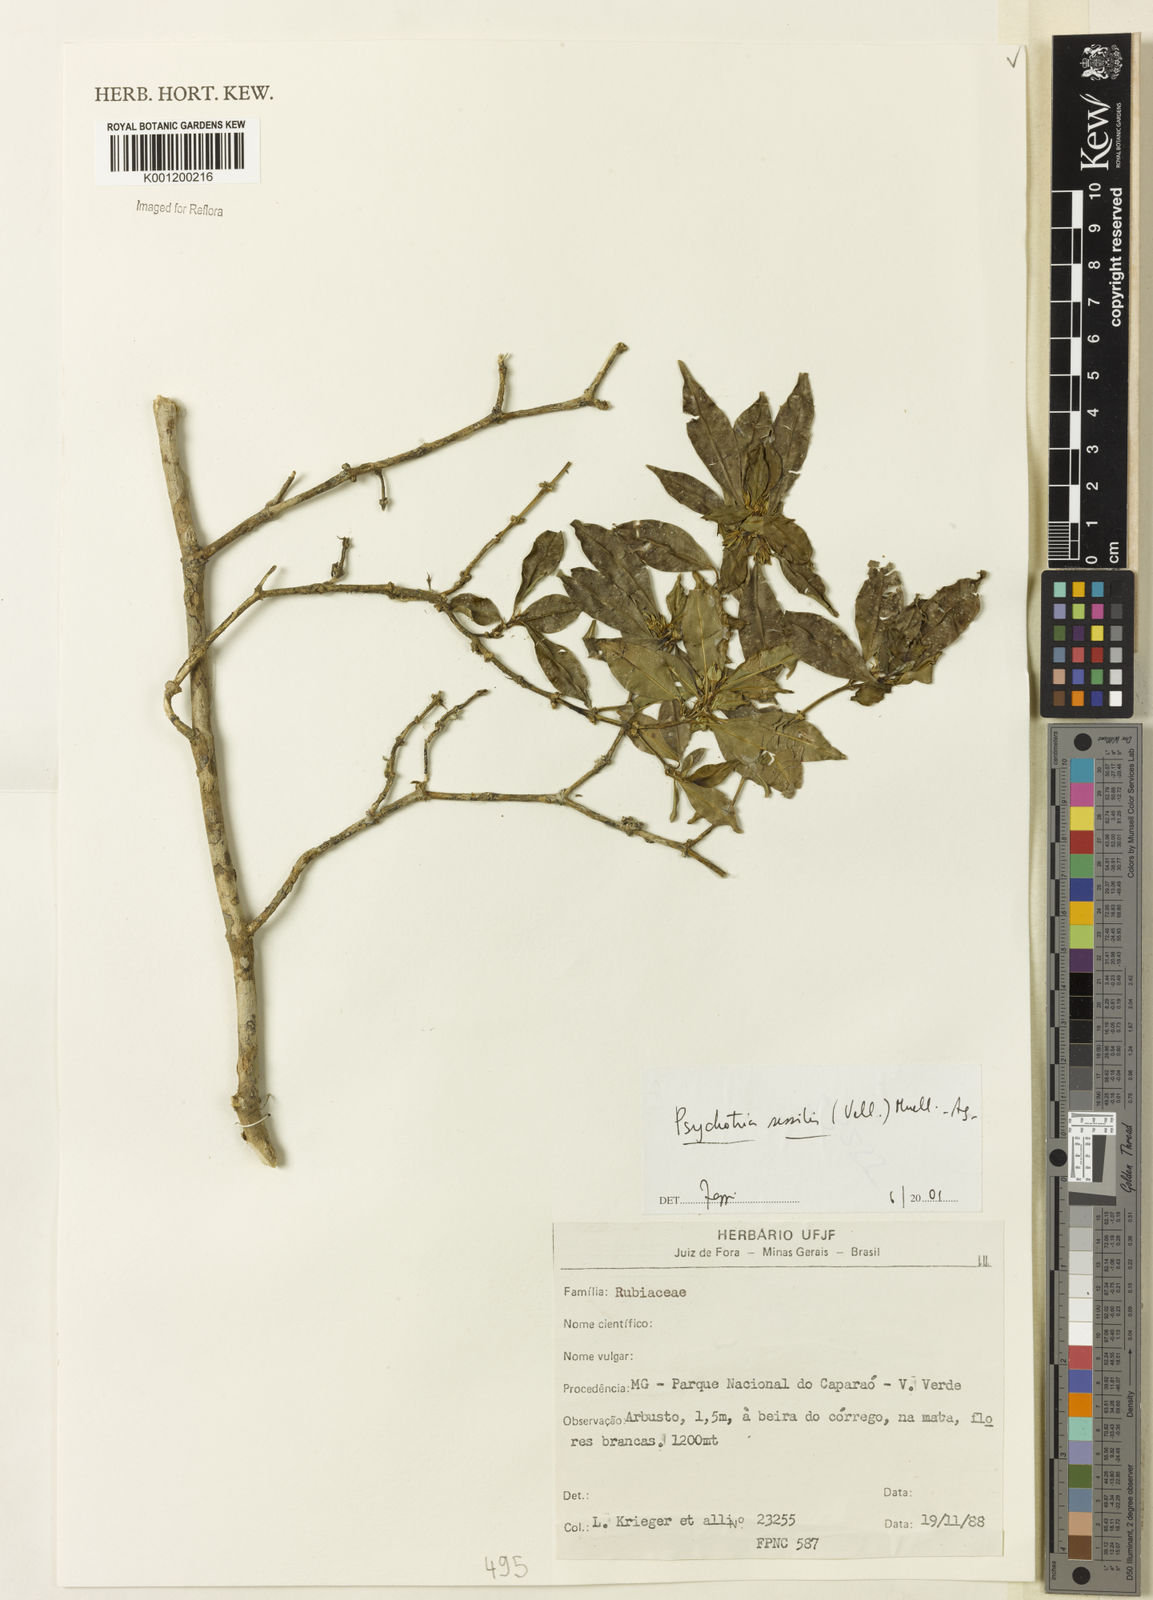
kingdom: Plantae
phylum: Tracheophyta
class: Magnoliopsida
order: Gentianales
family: Rubiaceae
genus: Rudgea
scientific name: Rudgea sessilis
